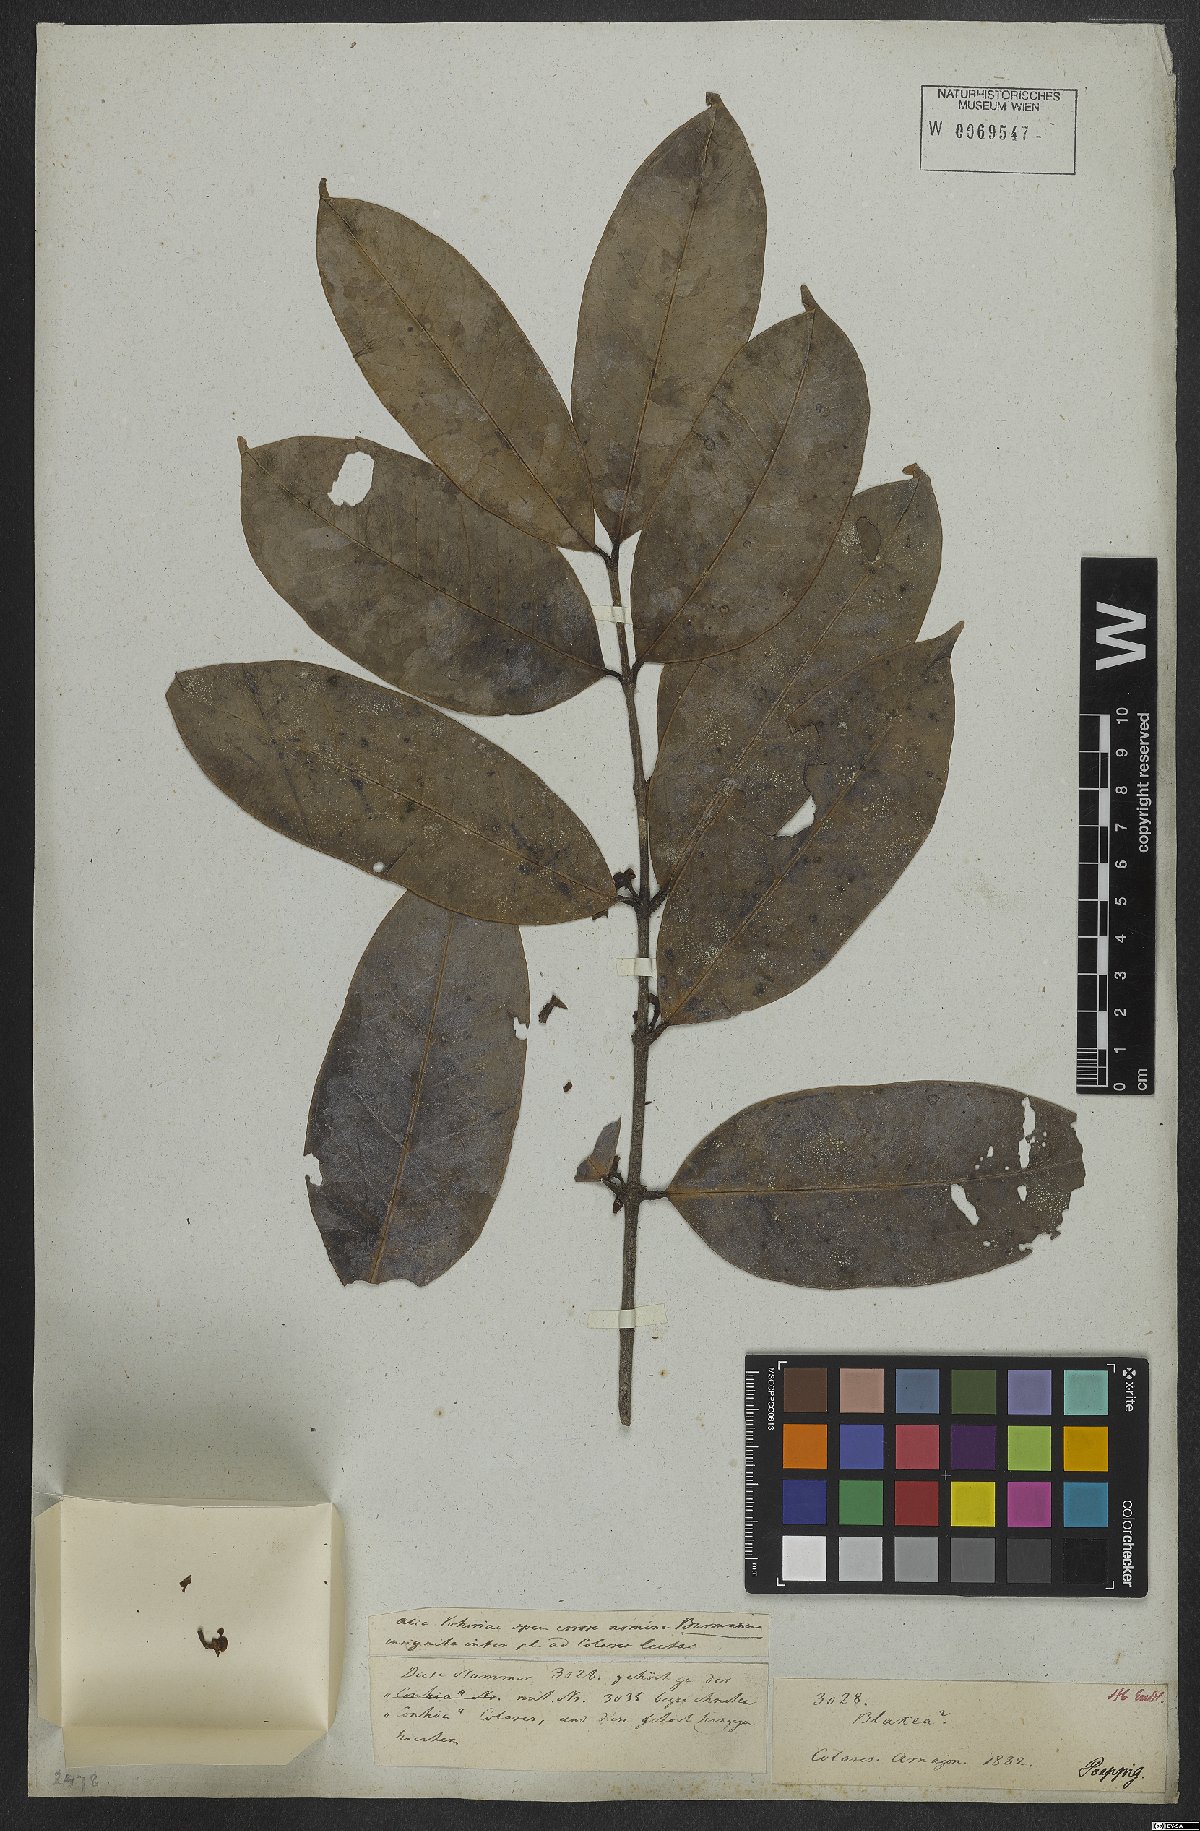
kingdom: Plantae
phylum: Tracheophyta
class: Magnoliopsida
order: Myrtales
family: Melastomataceae
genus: Blakea
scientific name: Blakea
